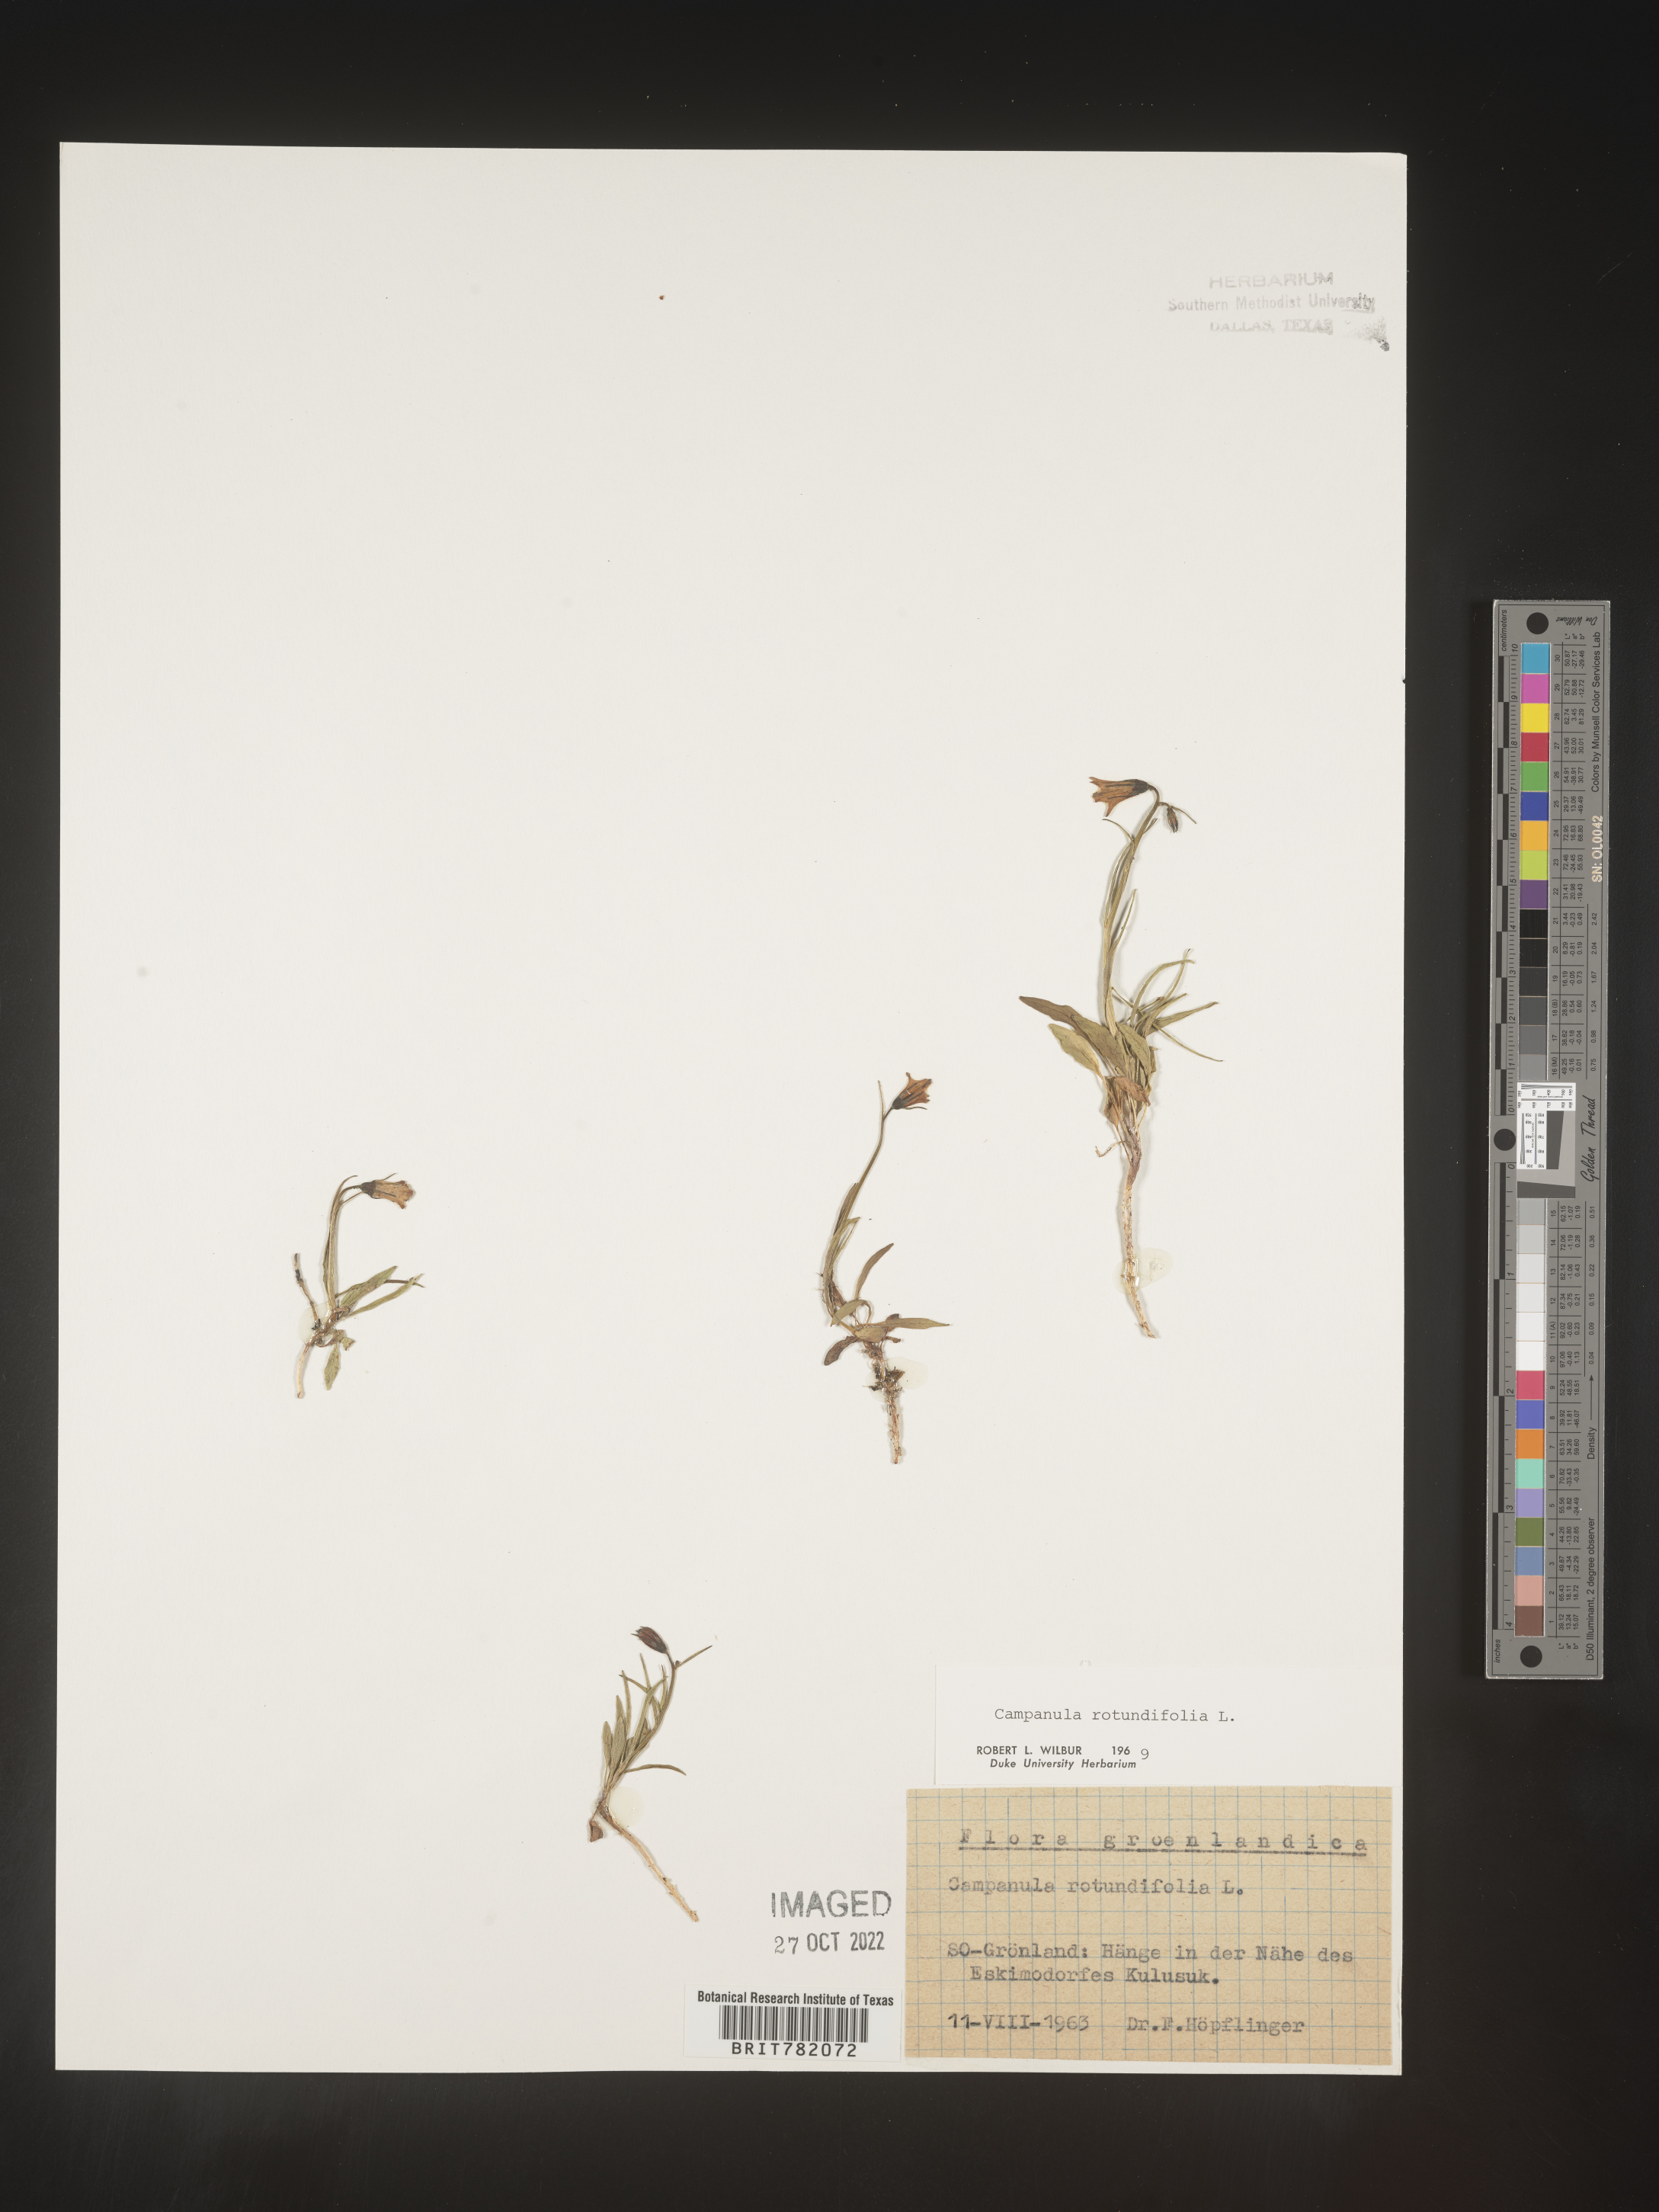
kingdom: Plantae
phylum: Tracheophyta
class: Magnoliopsida
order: Asterales
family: Campanulaceae
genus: Campanula
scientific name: Campanula rotundifolia
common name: Harebell
